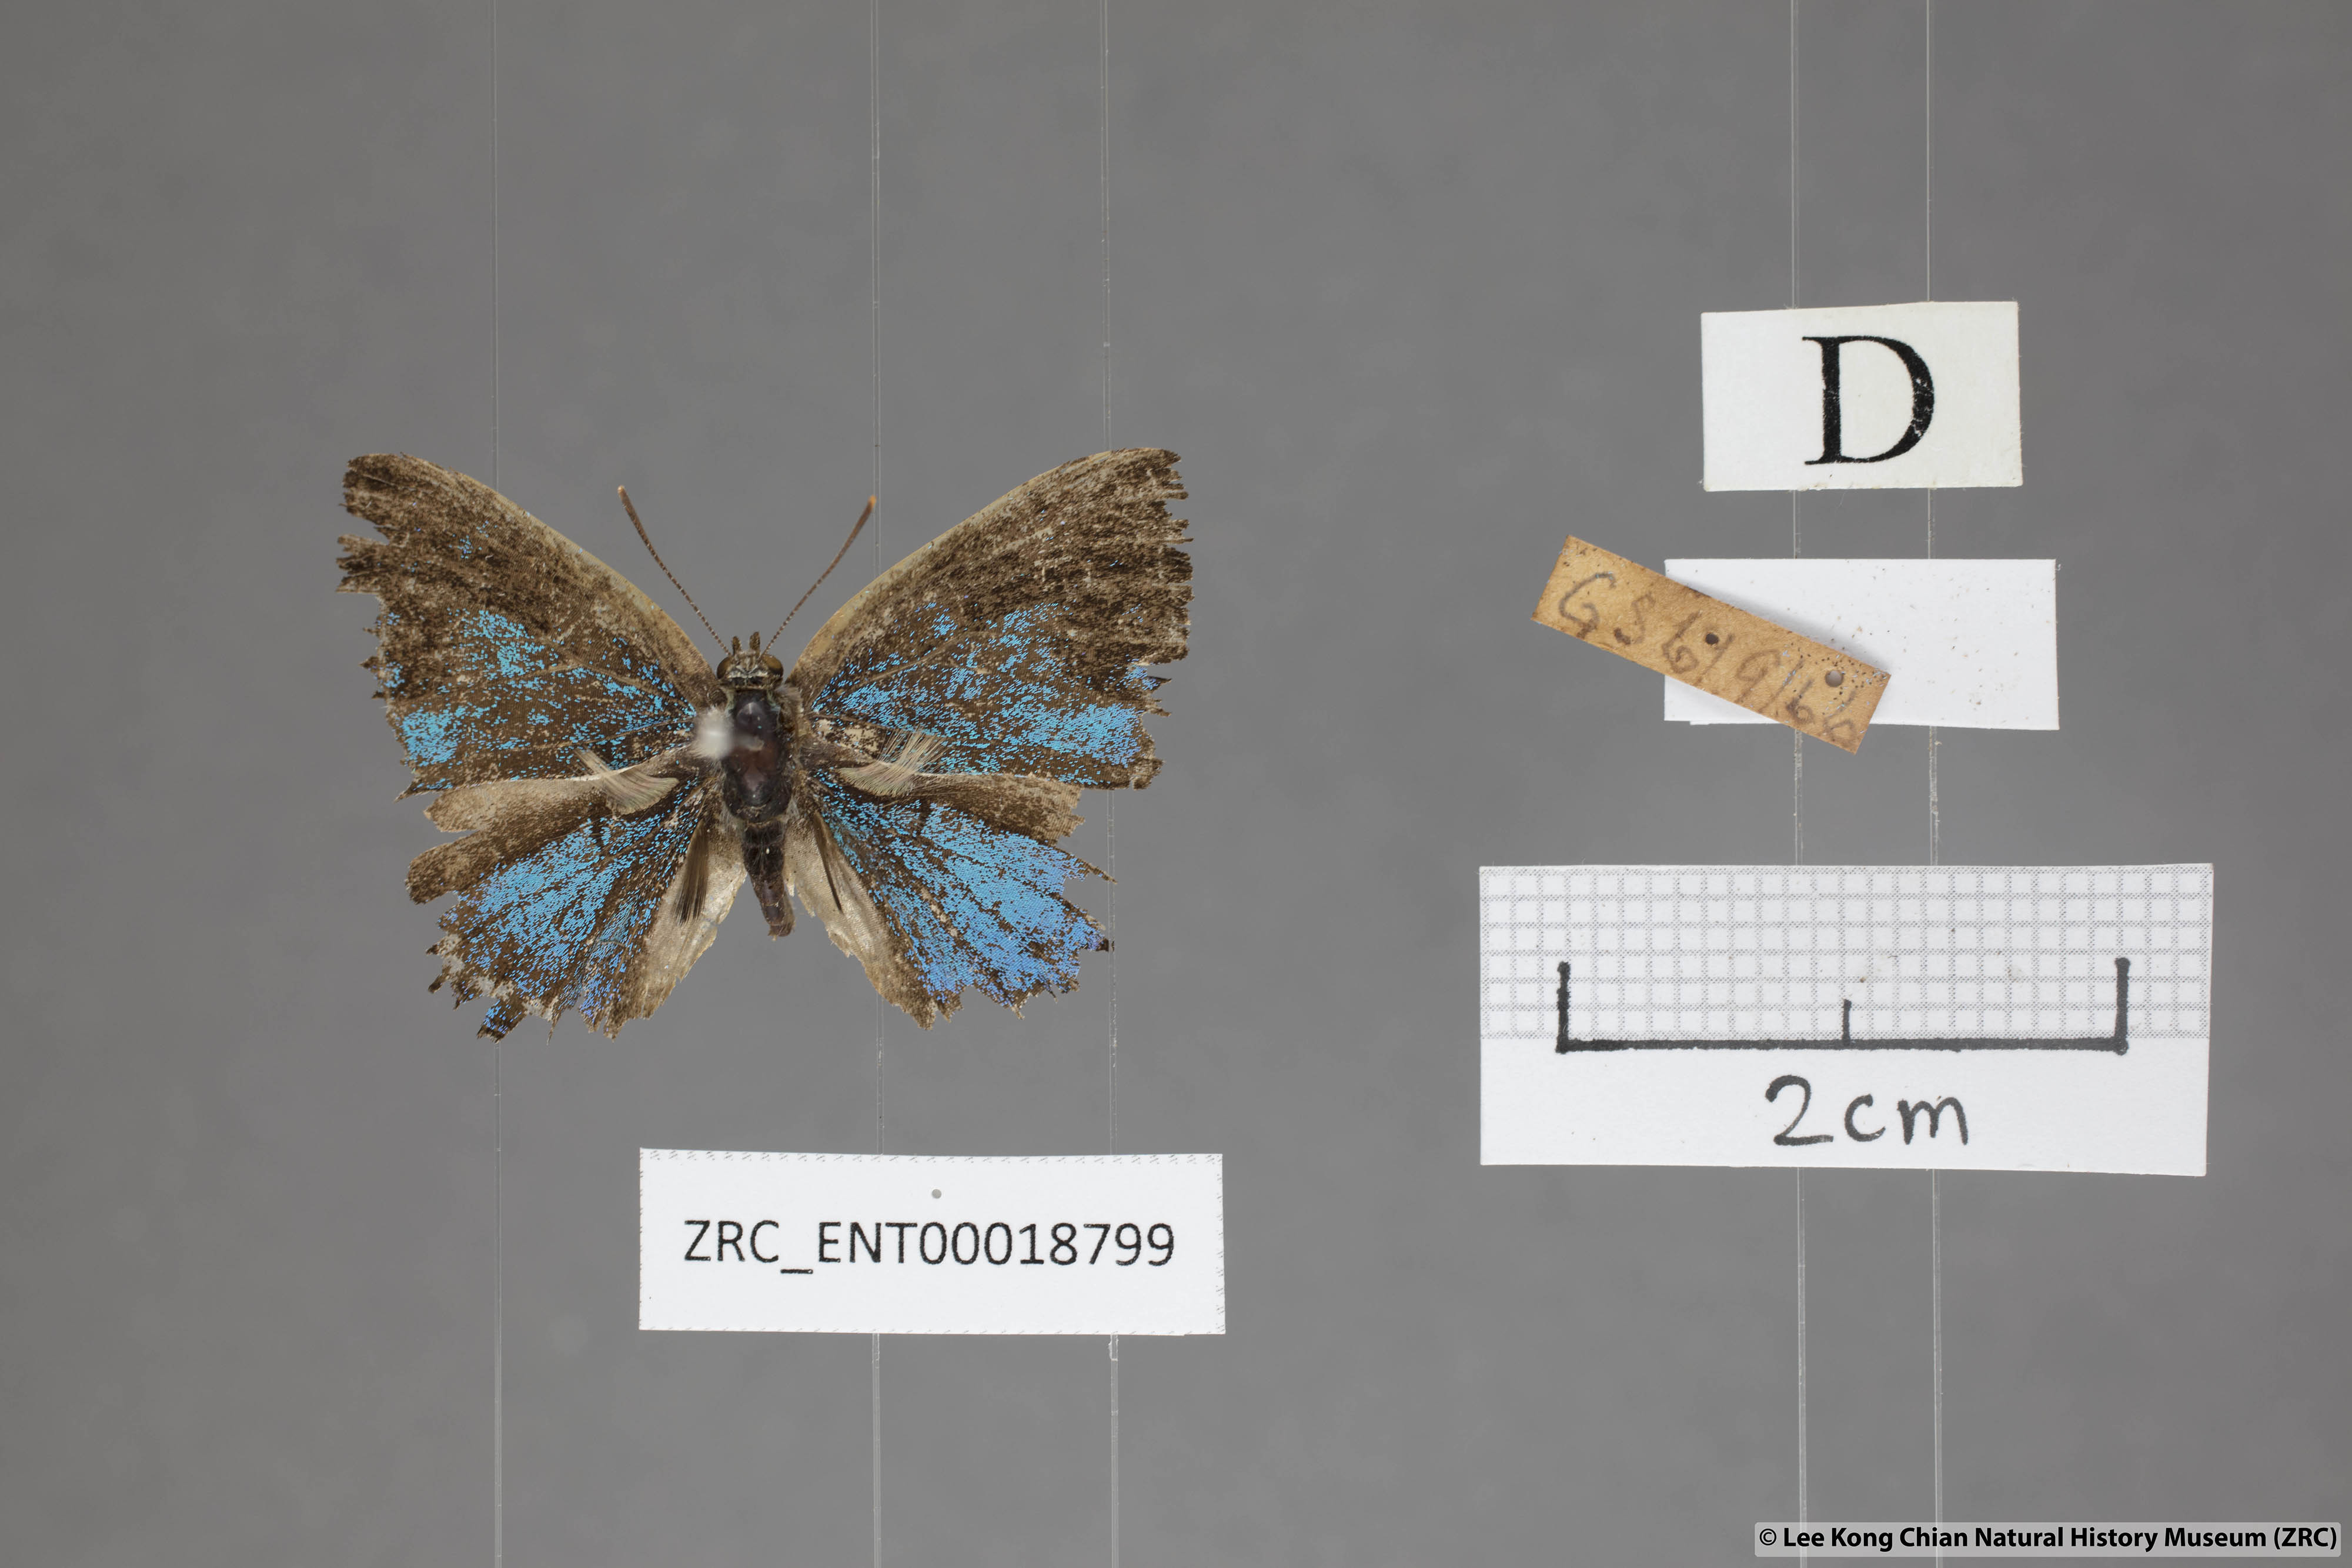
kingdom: Animalia
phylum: Arthropoda
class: Insecta
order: Lepidoptera
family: Lycaenidae
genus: Poritia
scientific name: Poritia pleurata
